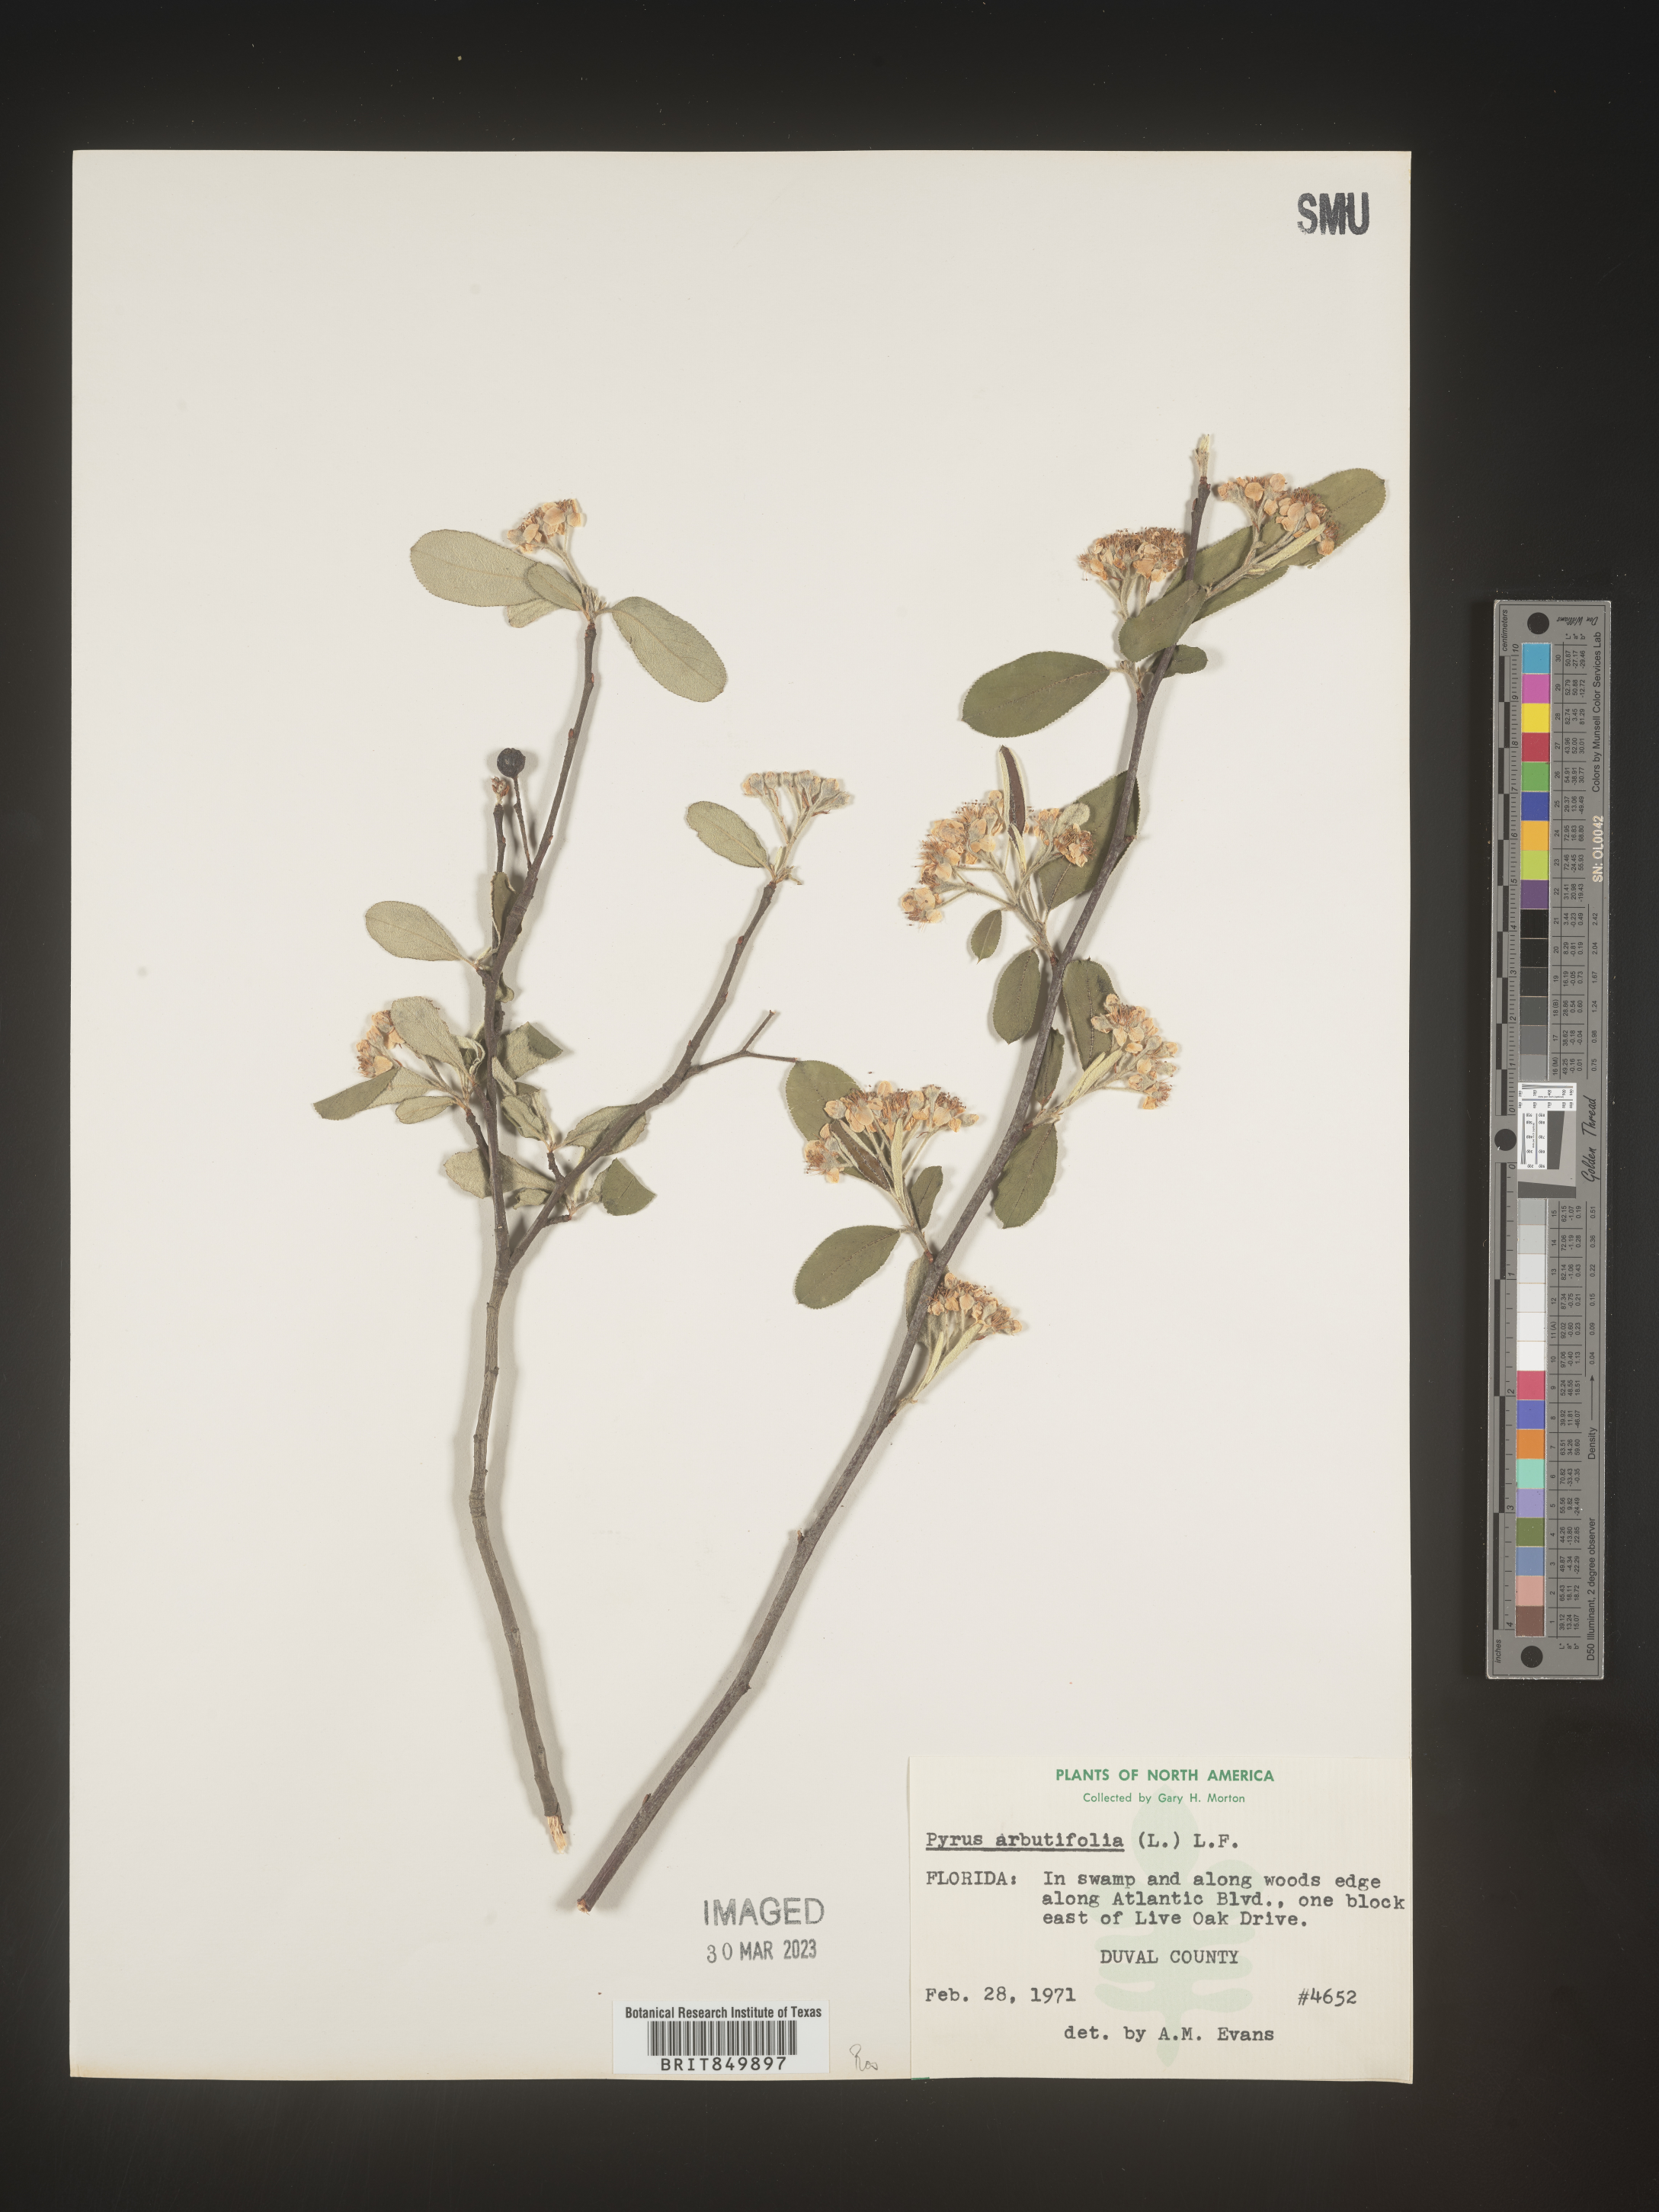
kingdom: Plantae
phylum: Tracheophyta
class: Magnoliopsida
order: Rosales
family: Rosaceae
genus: Pyrus
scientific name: Pyrus
